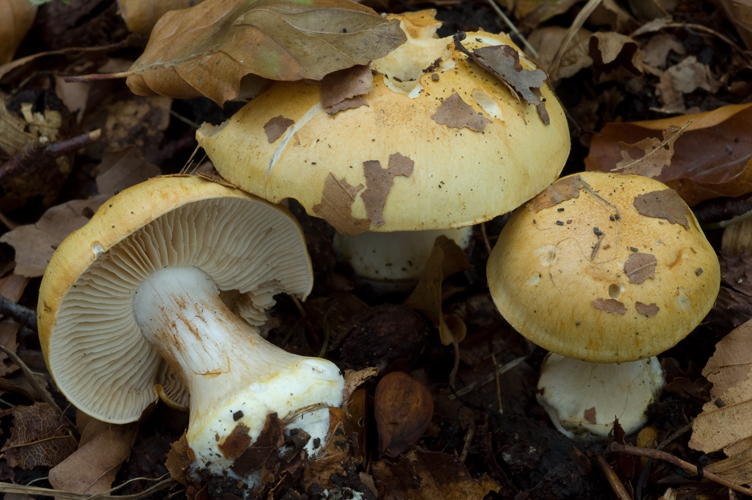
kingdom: Fungi
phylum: Basidiomycota
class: Agaricomycetes
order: Agaricales
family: Cortinariaceae
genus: Phlegmacium
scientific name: Phlegmacium rhizophorum
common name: finkornet slørhat
